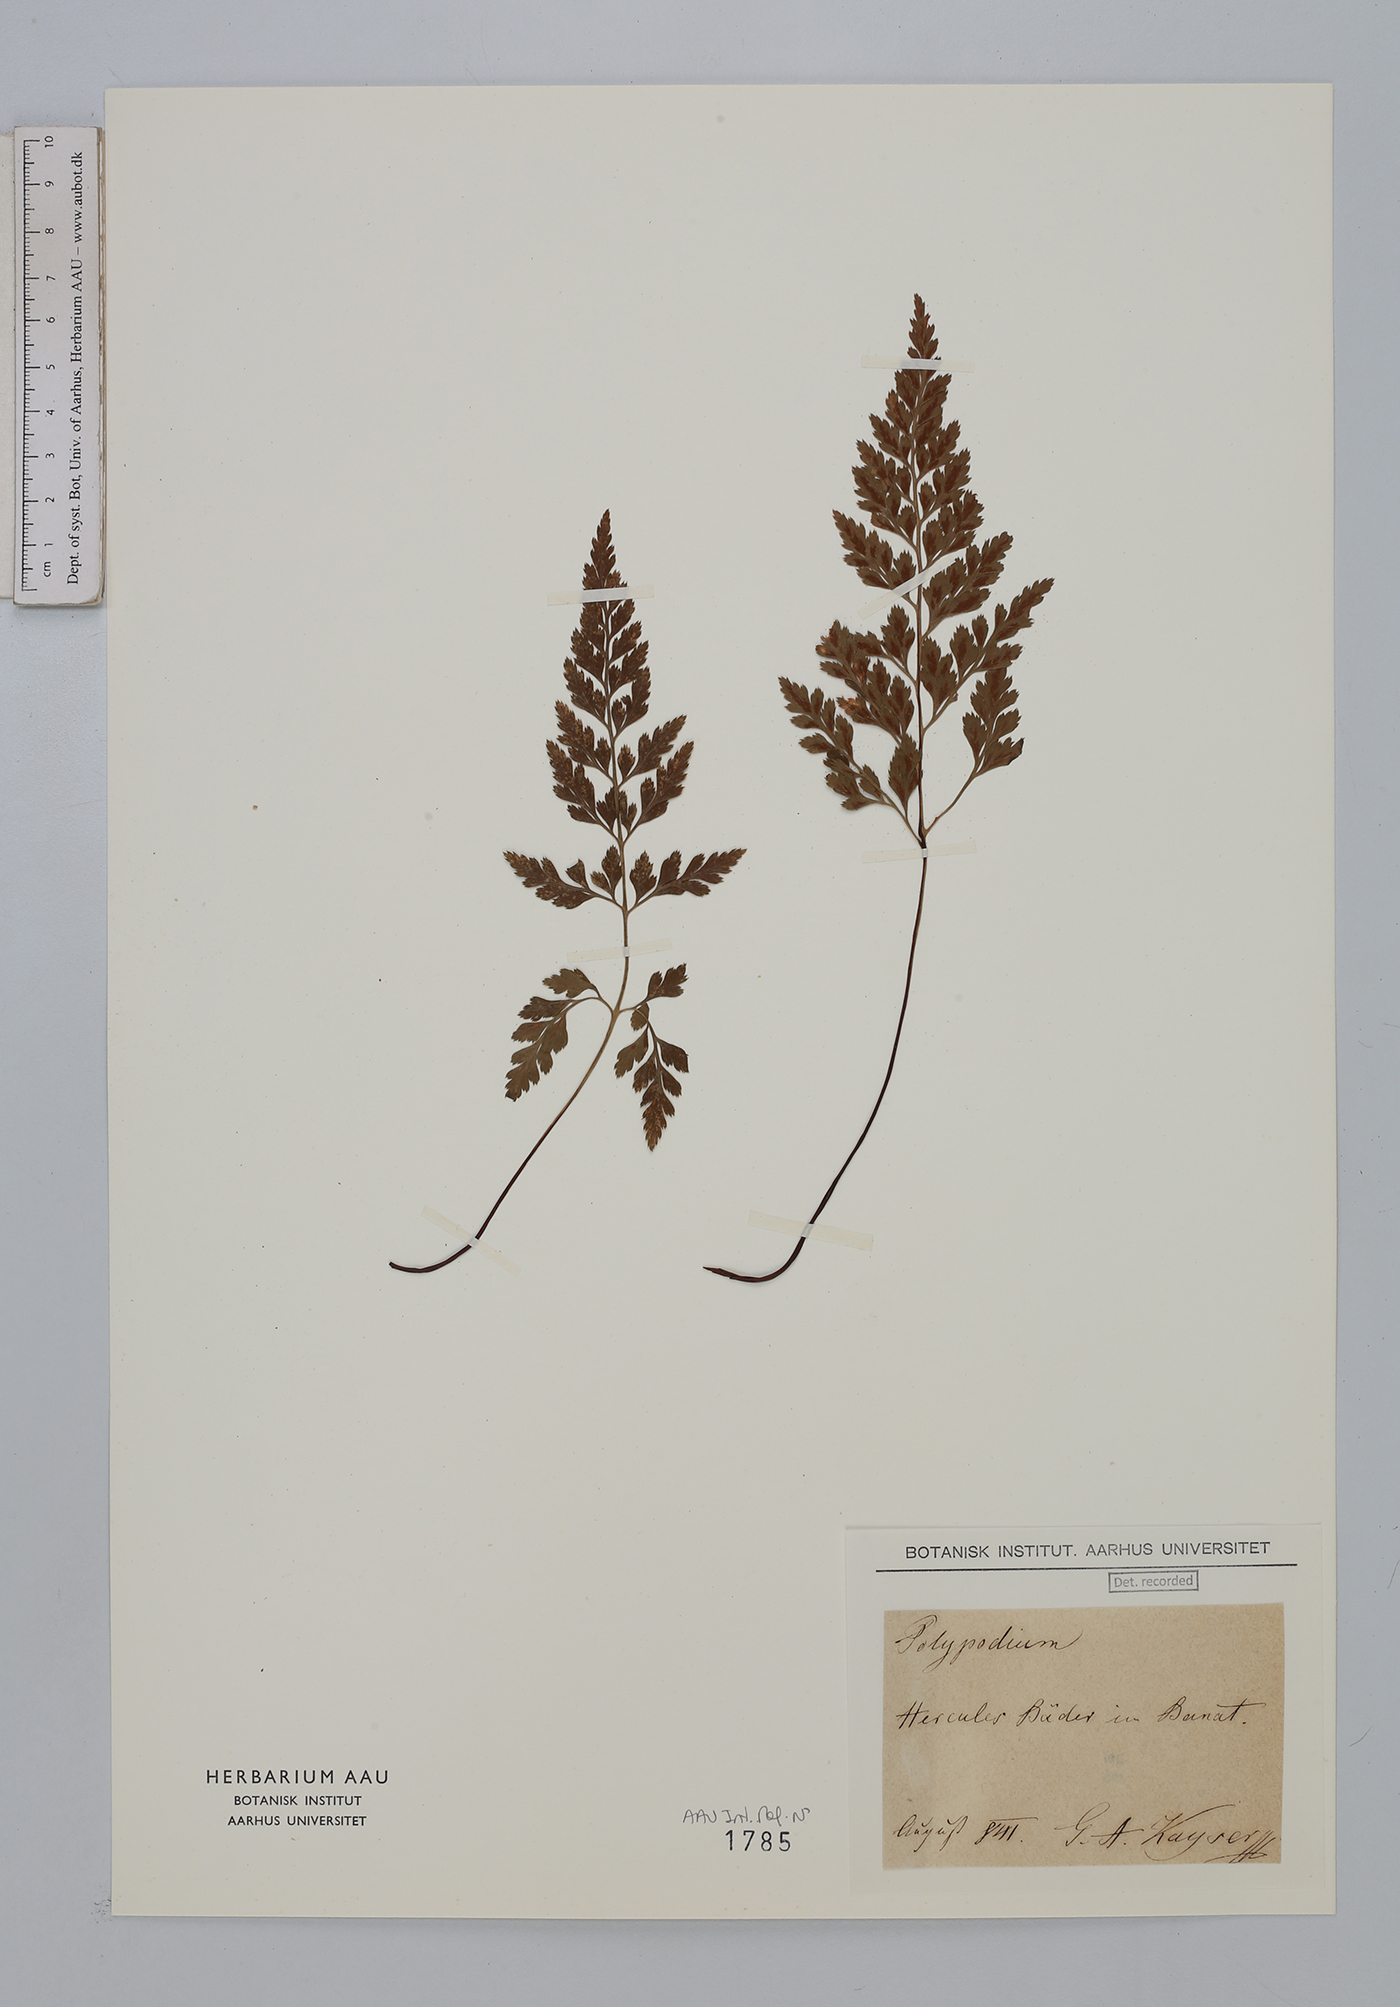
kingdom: Plantae
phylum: Tracheophyta
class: Polypodiopsida
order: Polypodiales
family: Aspleniaceae
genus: Asplenium
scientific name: Asplenium cuneifolium
